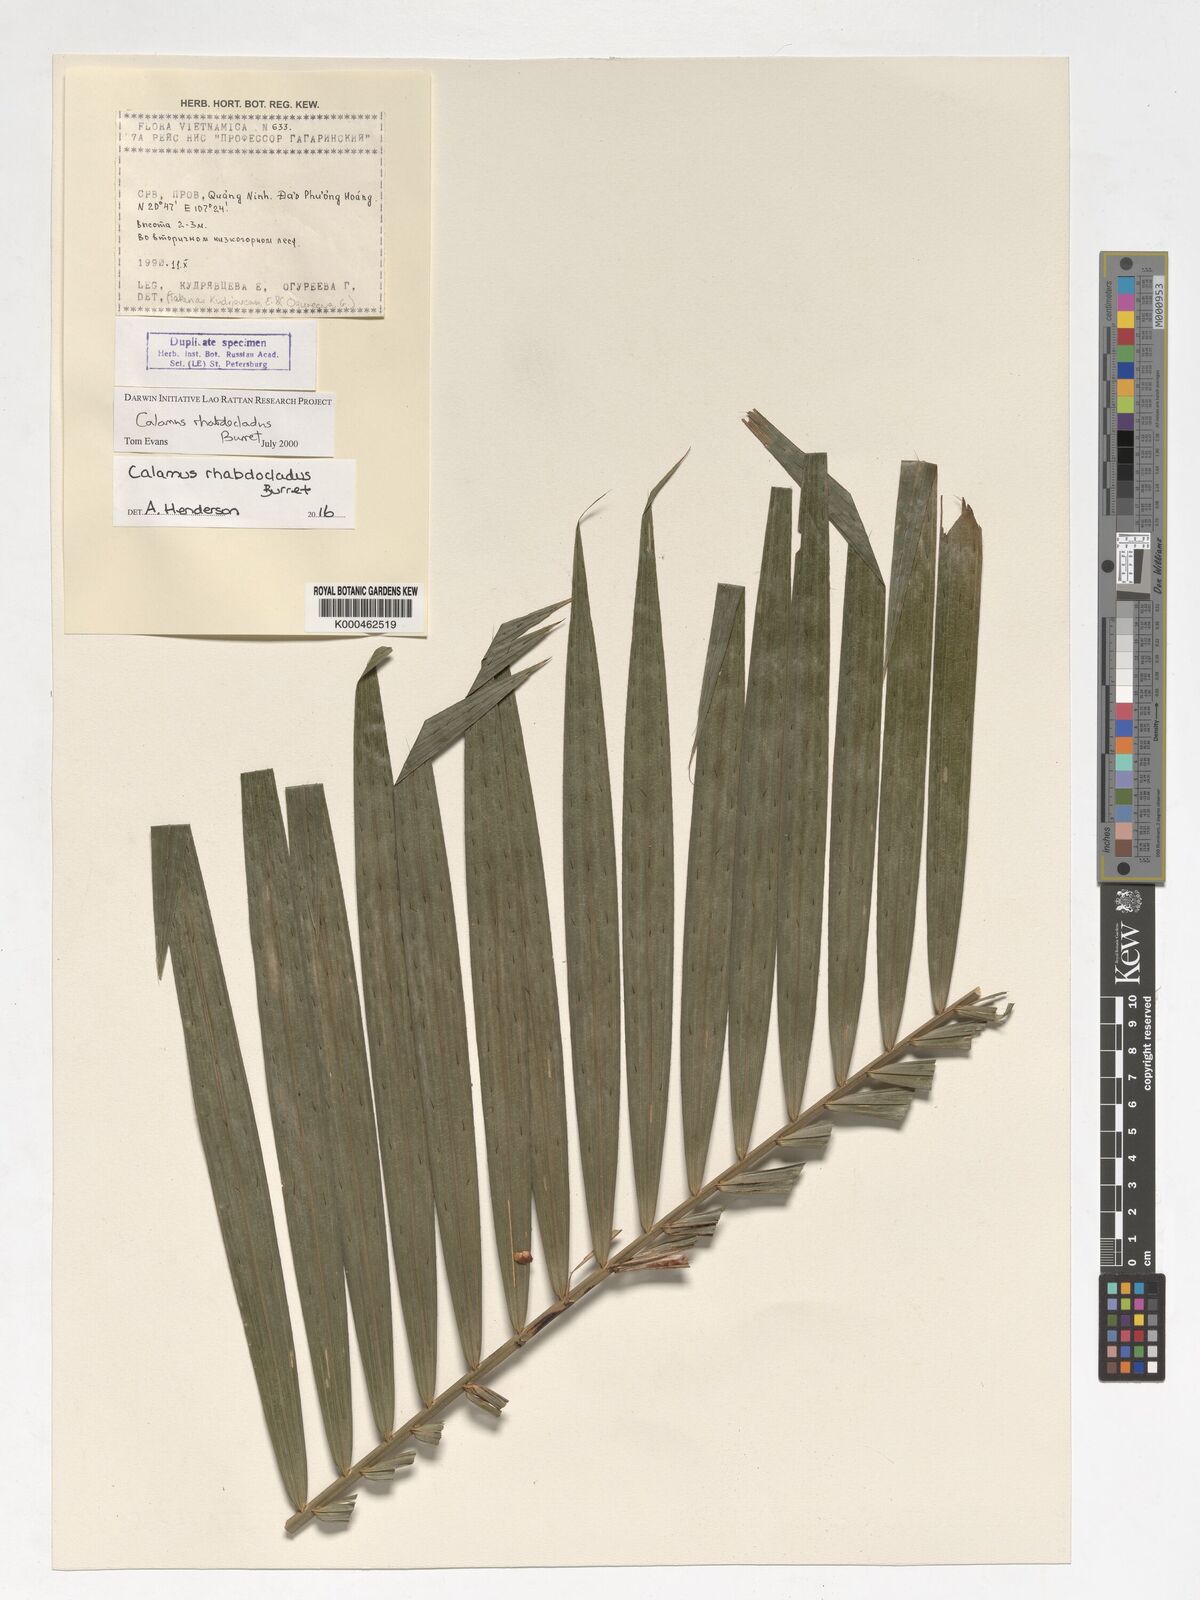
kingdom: Plantae
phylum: Tracheophyta
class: Liliopsida
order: Arecales
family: Arecaceae
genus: Calamus
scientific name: Calamus rhabdocladus
